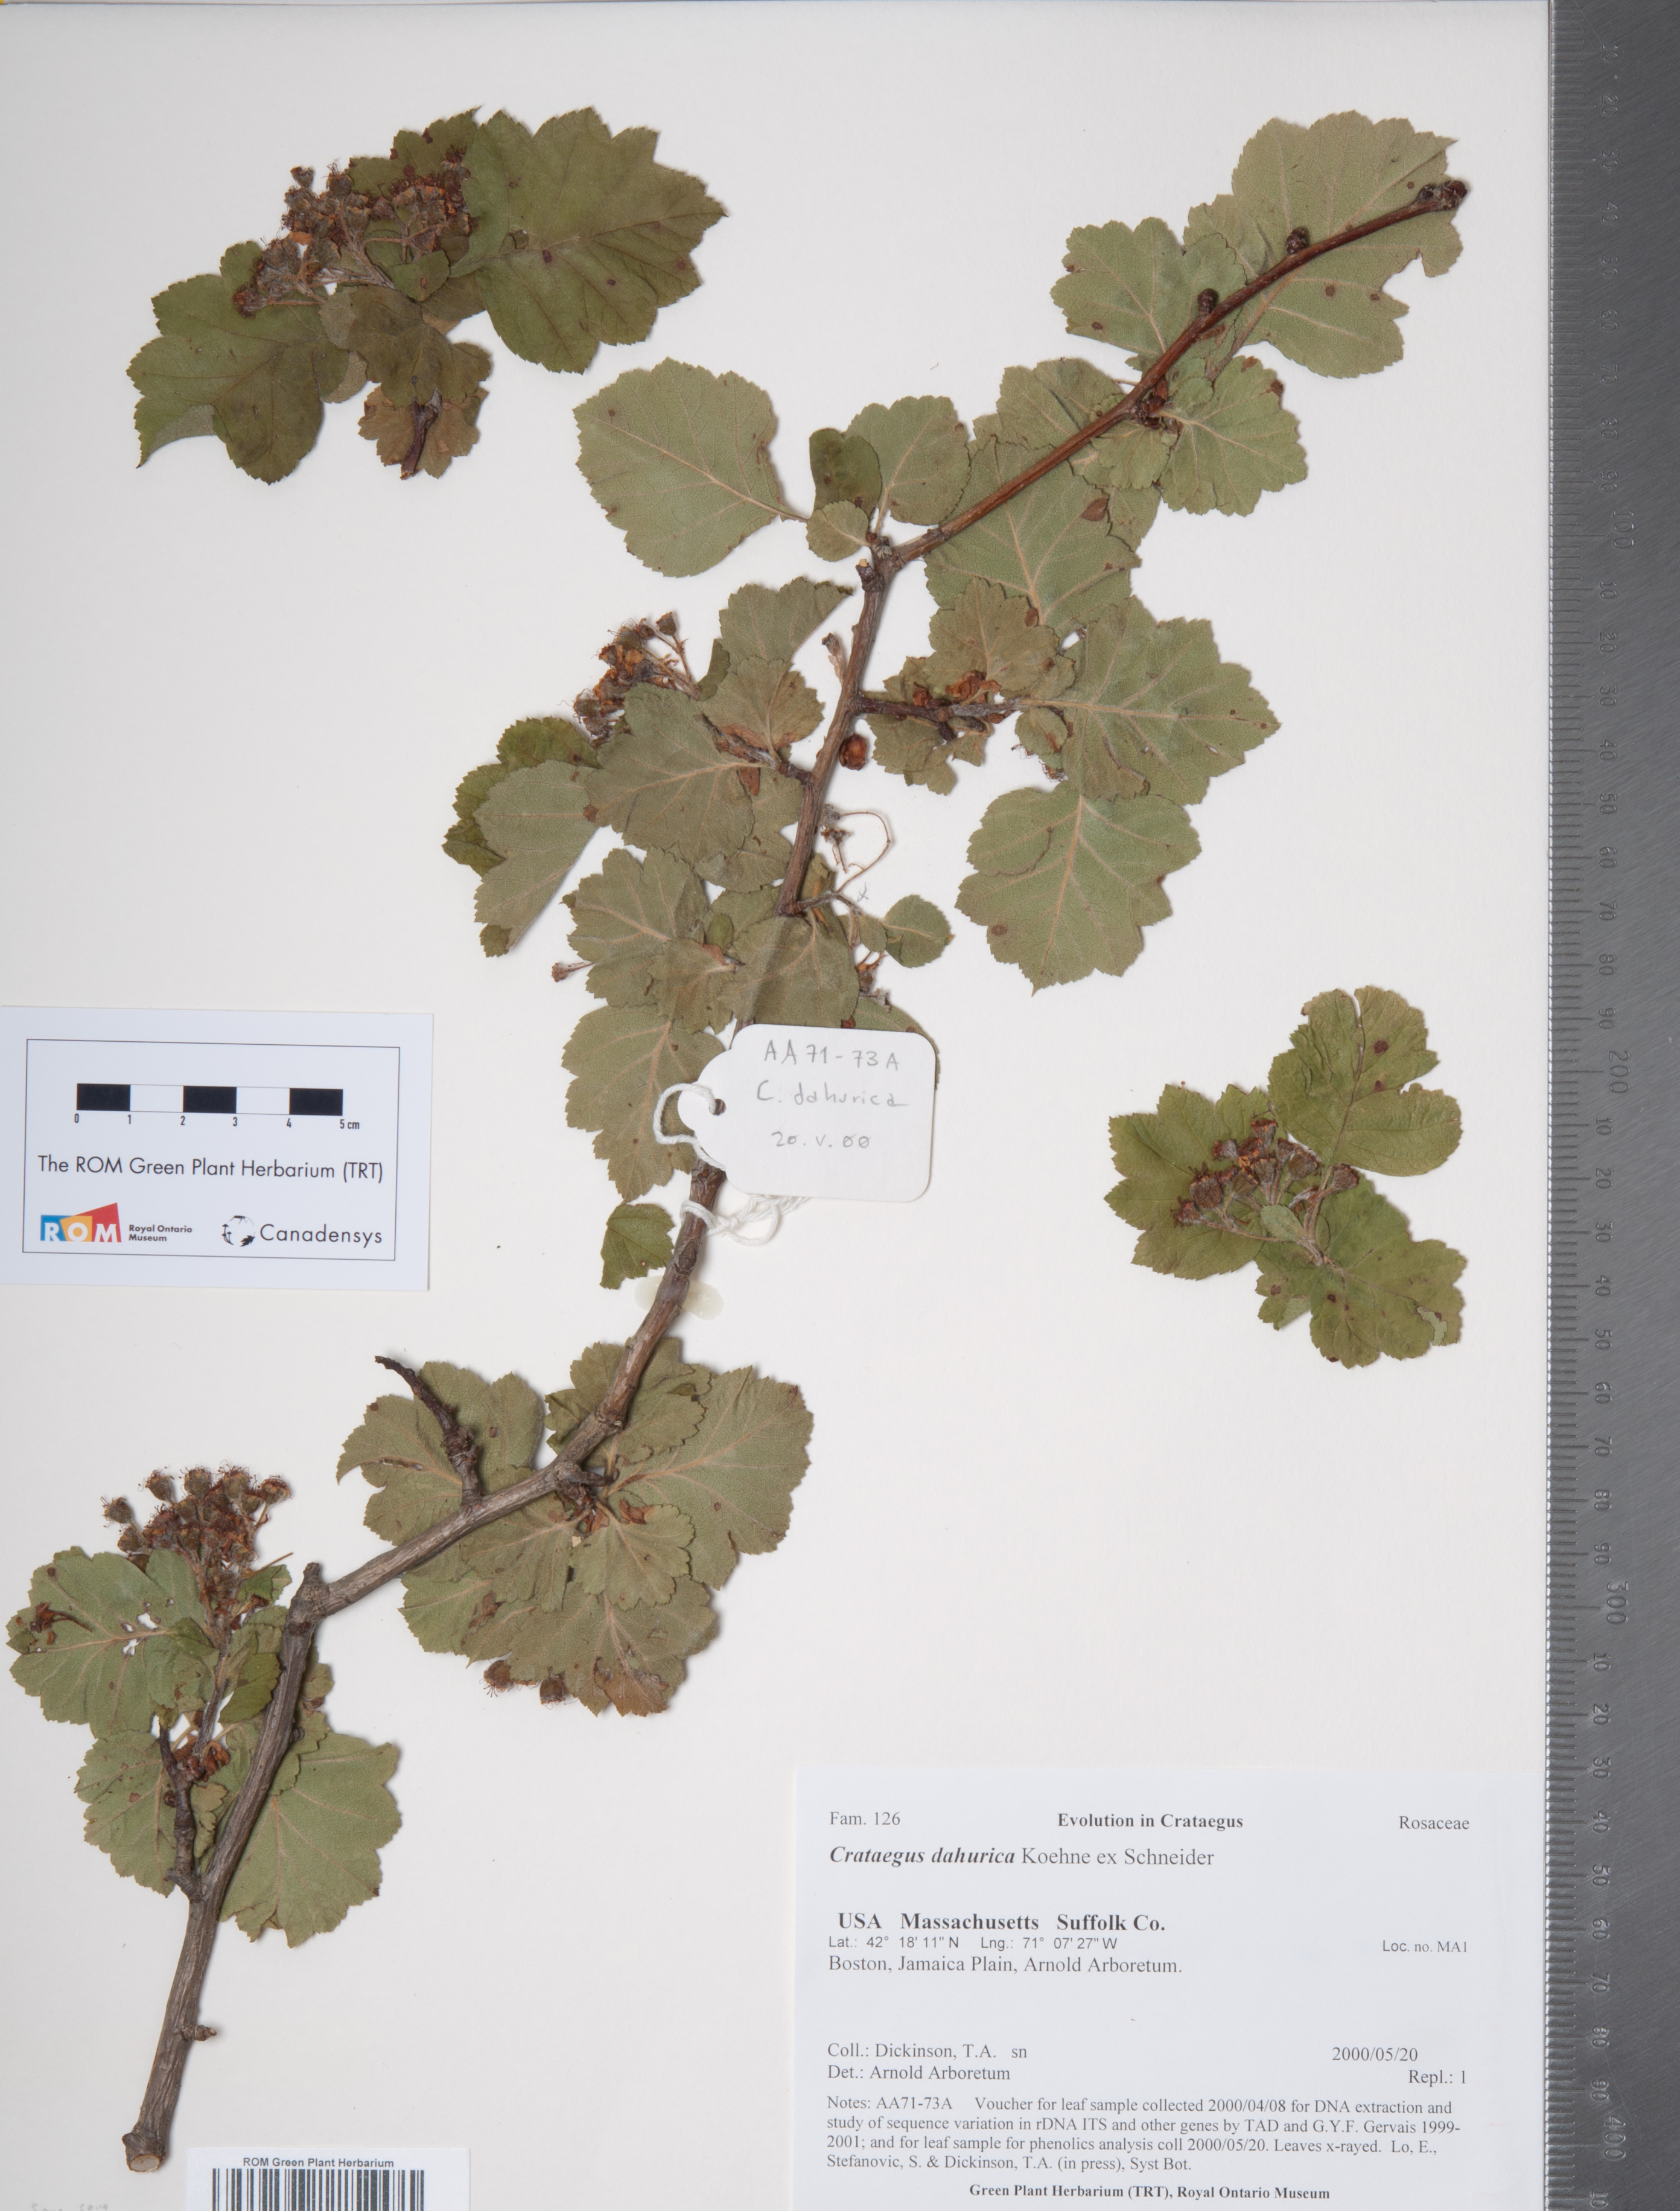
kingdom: Plantae
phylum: Tracheophyta
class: Magnoliopsida
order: Rosales
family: Rosaceae
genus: Crataegus
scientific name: Crataegus maximowiczii
